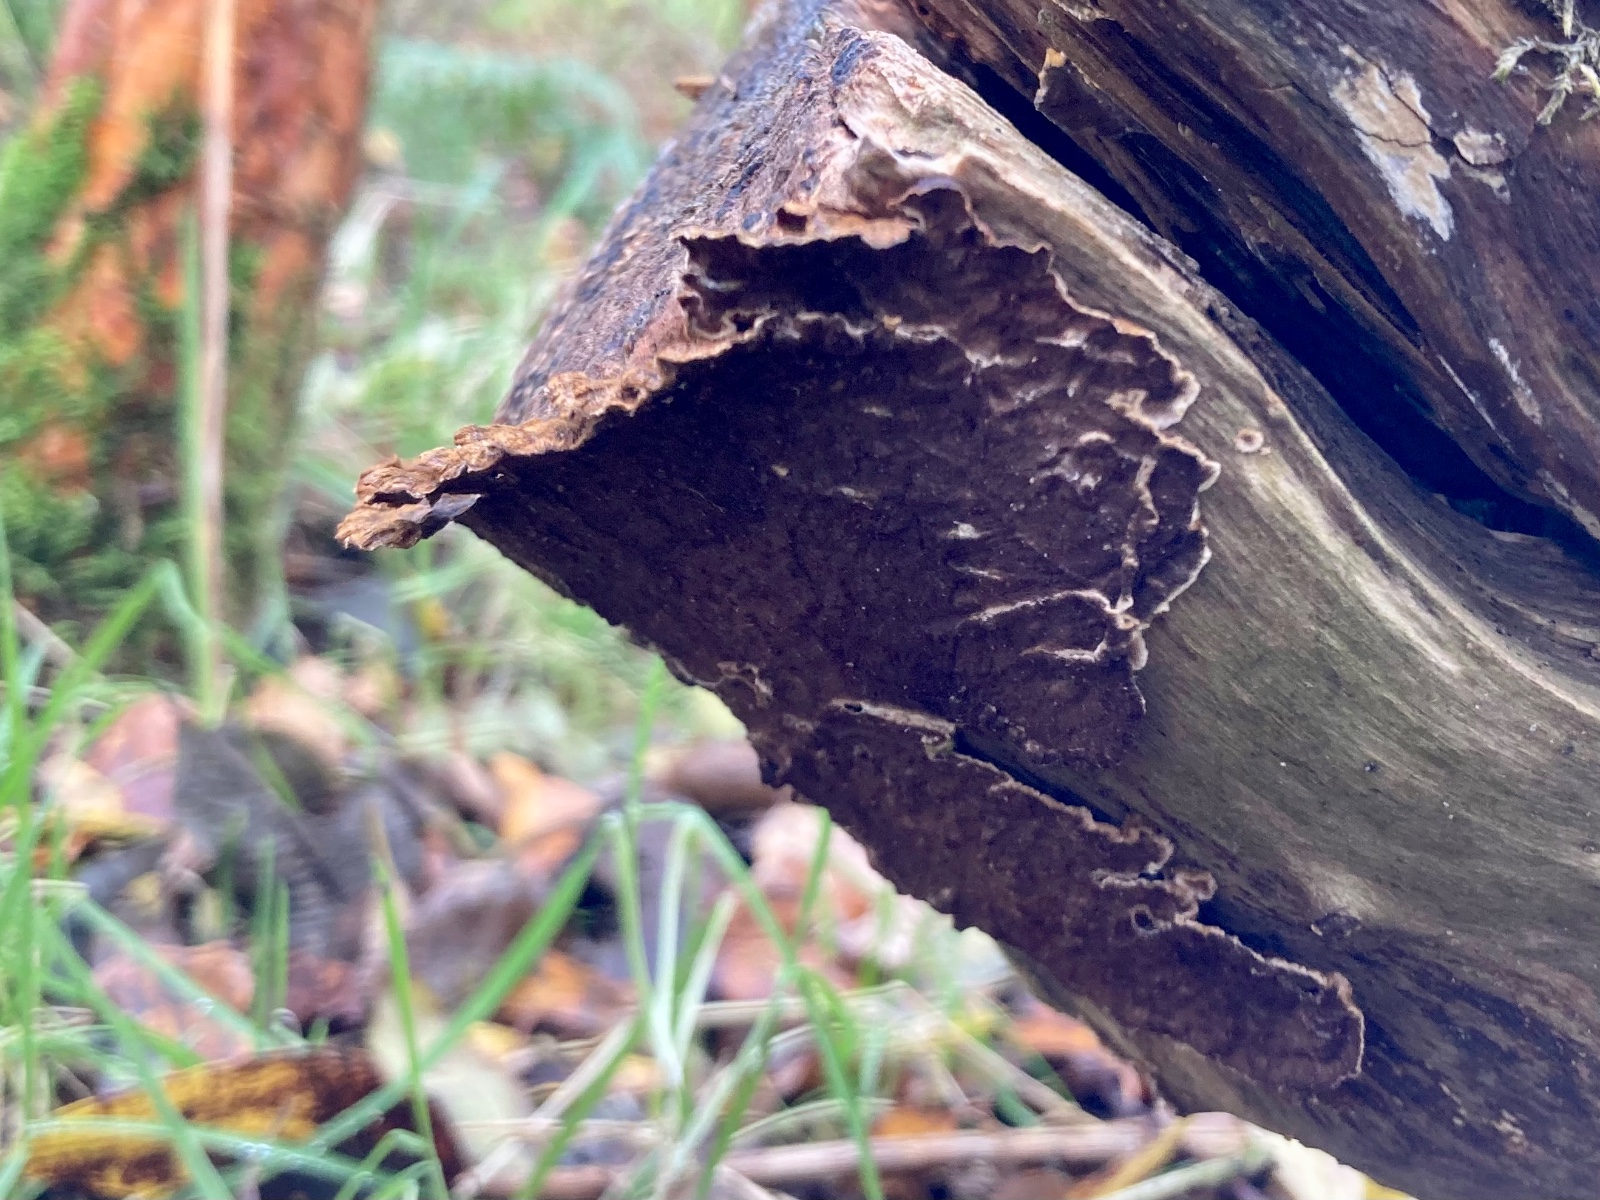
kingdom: Fungi
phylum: Basidiomycota
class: Agaricomycetes
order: Hymenochaetales
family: Hymenochaetaceae
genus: Hydnoporia
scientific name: Hydnoporia tabacina
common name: tobaksbrun ruslædersvamp
